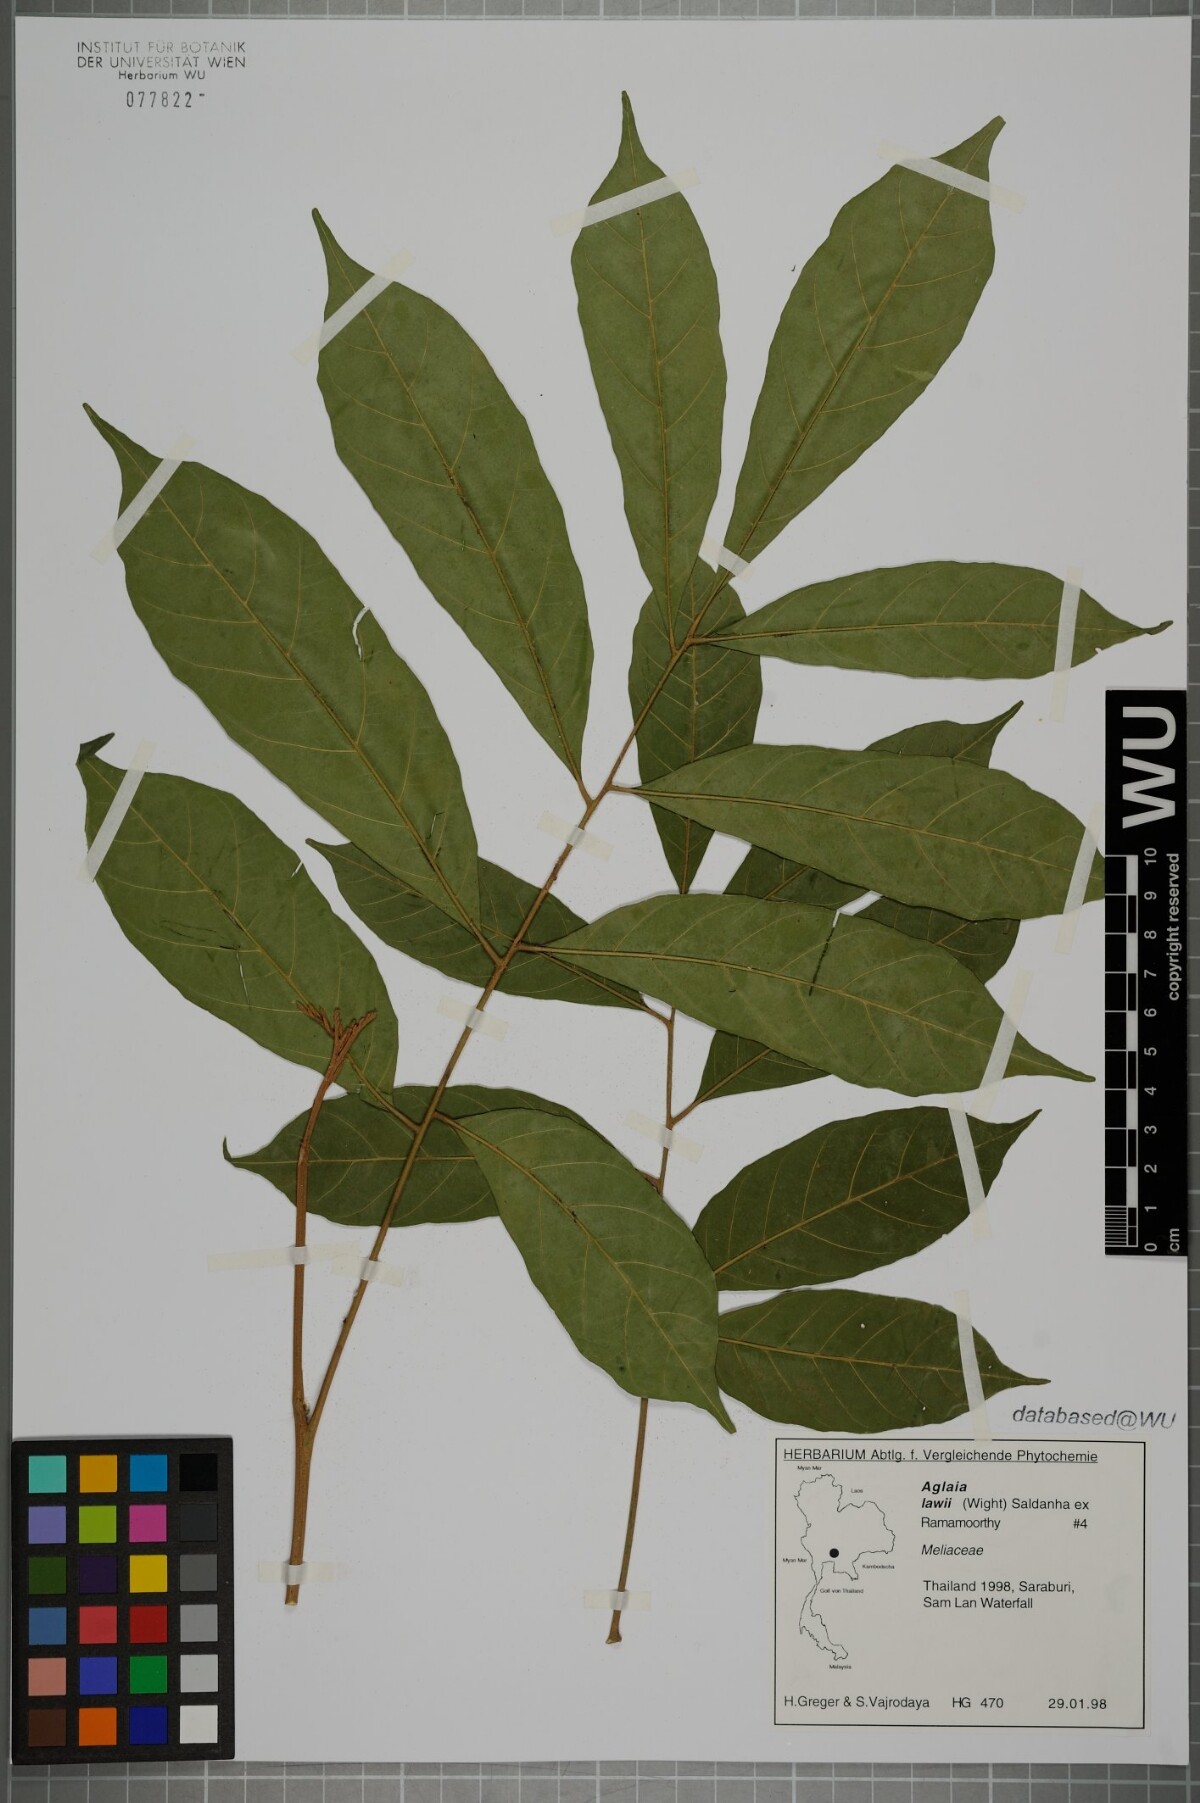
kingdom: Plantae
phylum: Tracheophyta
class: Magnoliopsida
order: Sapindales
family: Meliaceae
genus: Aglaia
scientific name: Aglaia lawii
